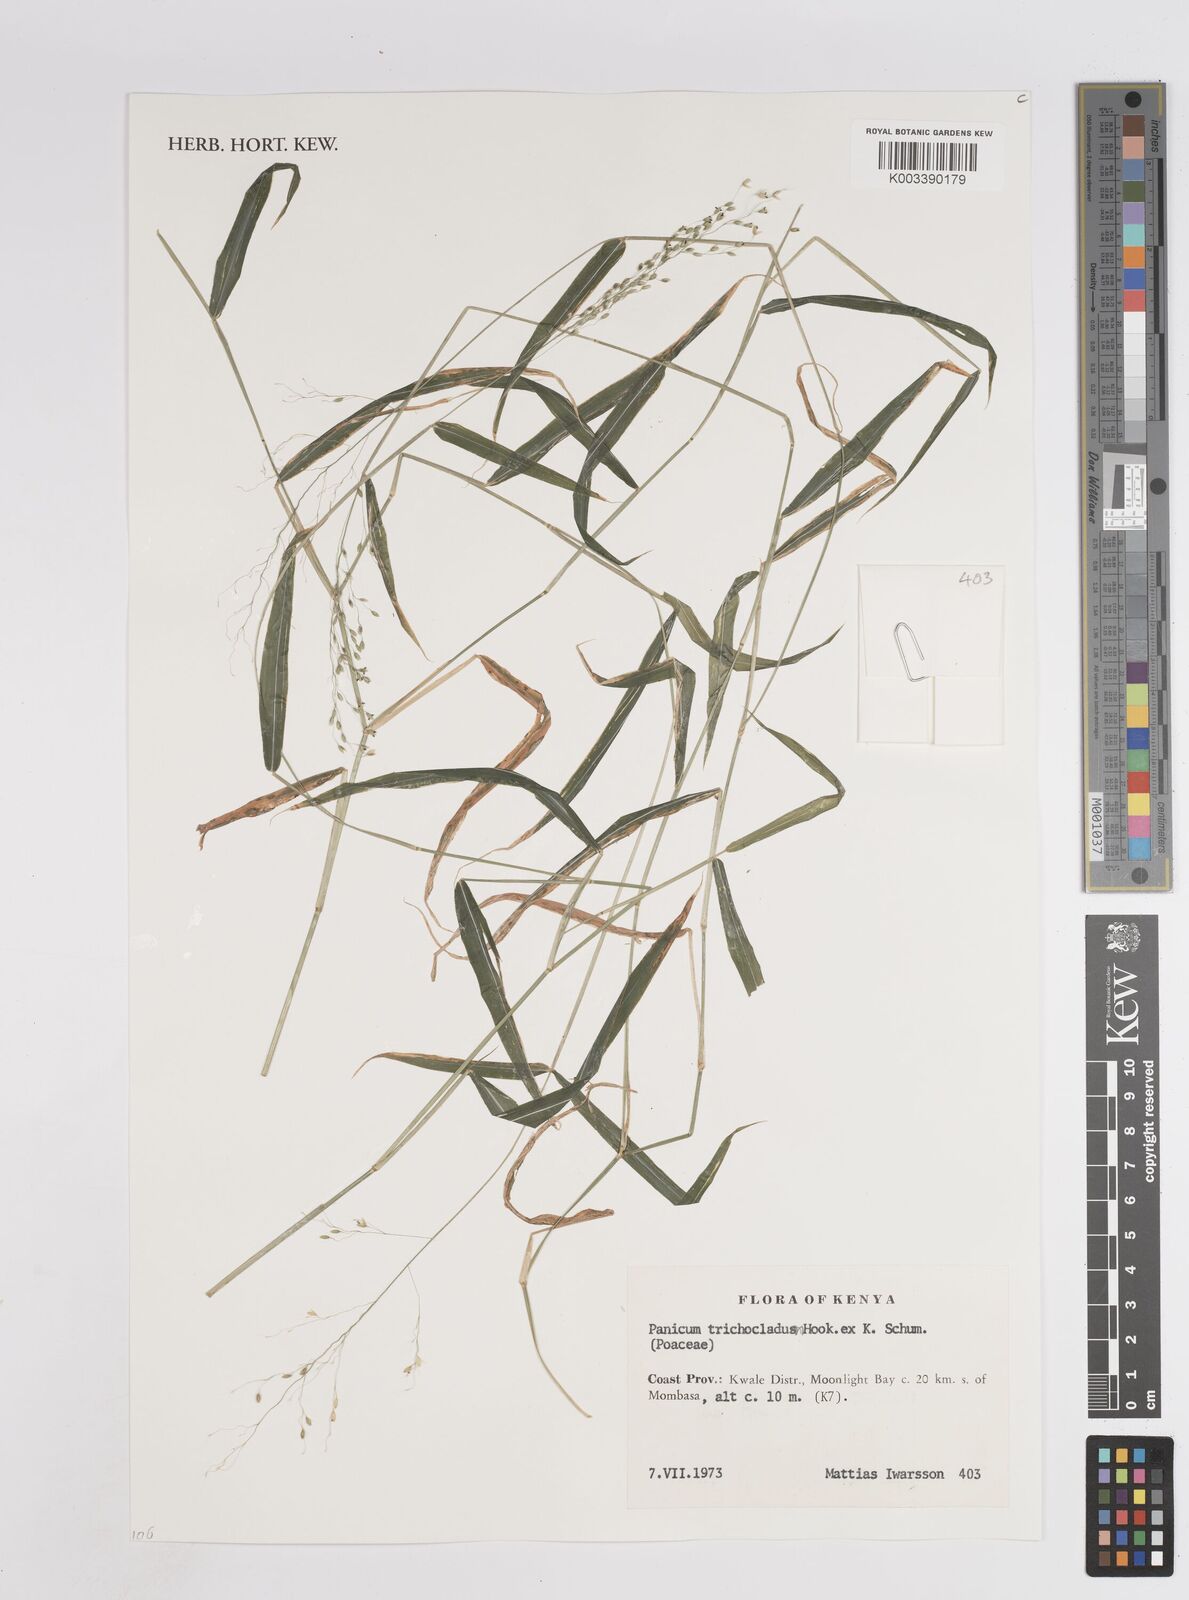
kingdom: Plantae
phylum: Tracheophyta
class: Liliopsida
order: Poales
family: Poaceae
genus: Panicum
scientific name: Panicum trichocladum
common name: Donkey grass
